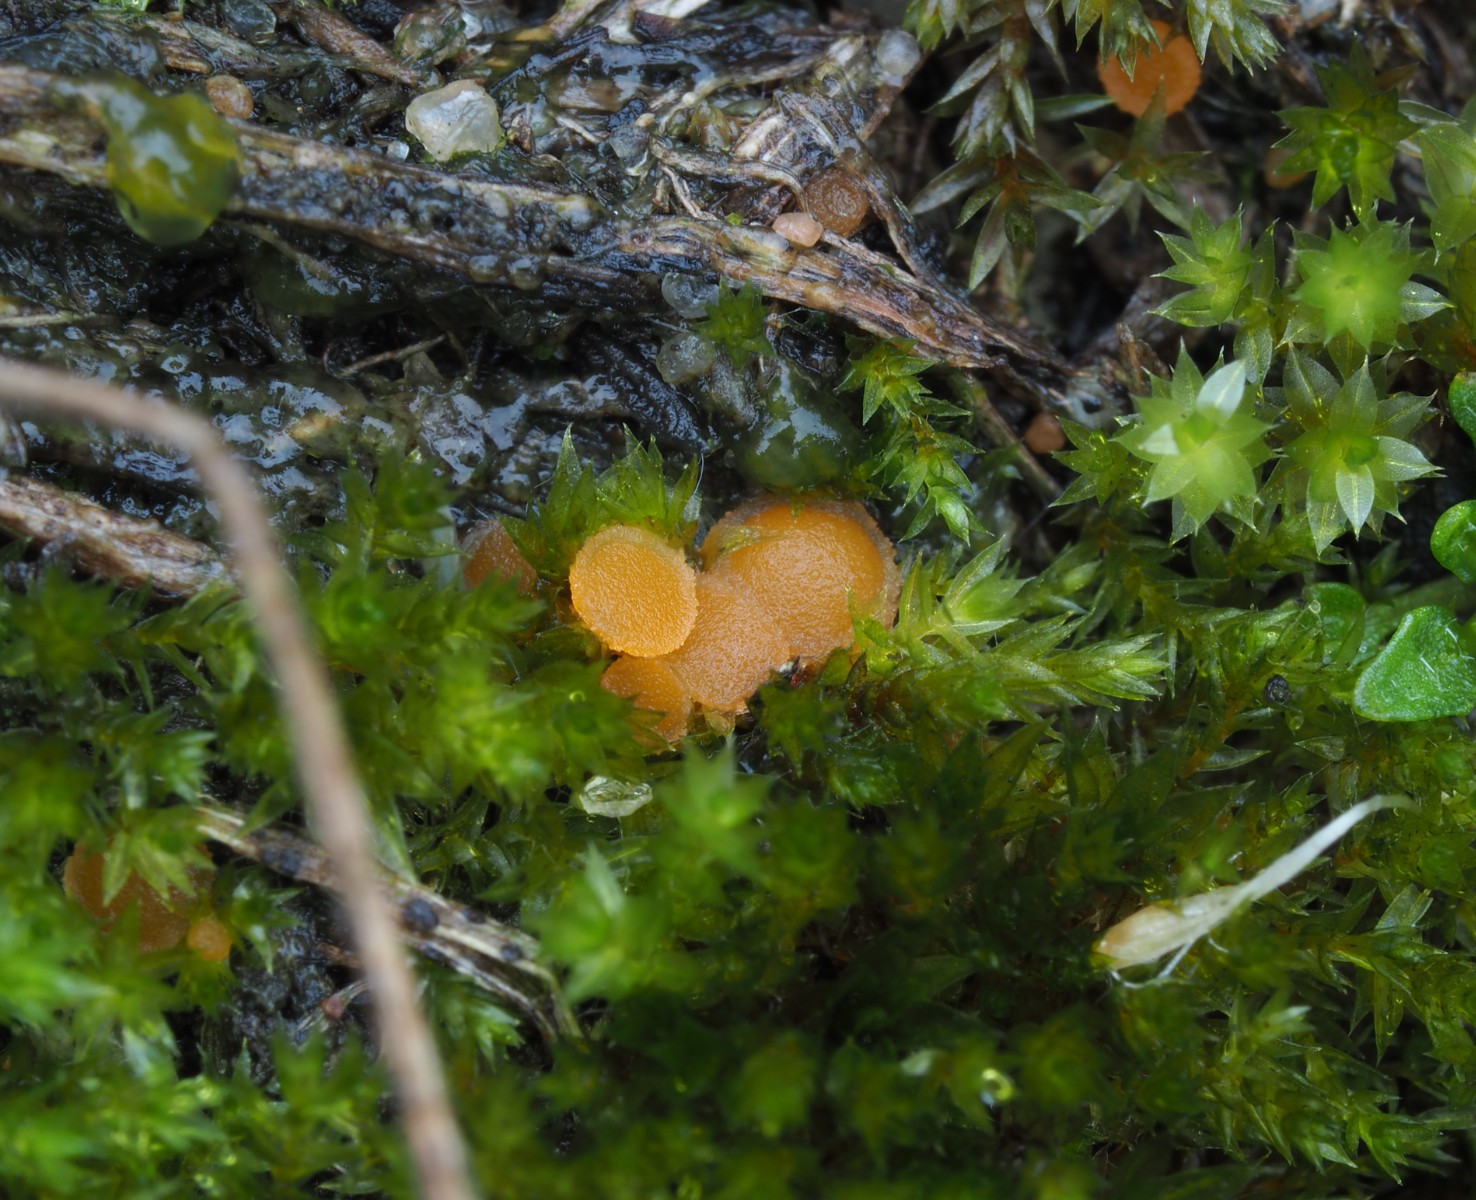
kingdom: Fungi
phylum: Ascomycota
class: Pezizomycetes
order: Pezizales
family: Pyronemataceae
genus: Octospora
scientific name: Octospora gemmicola
